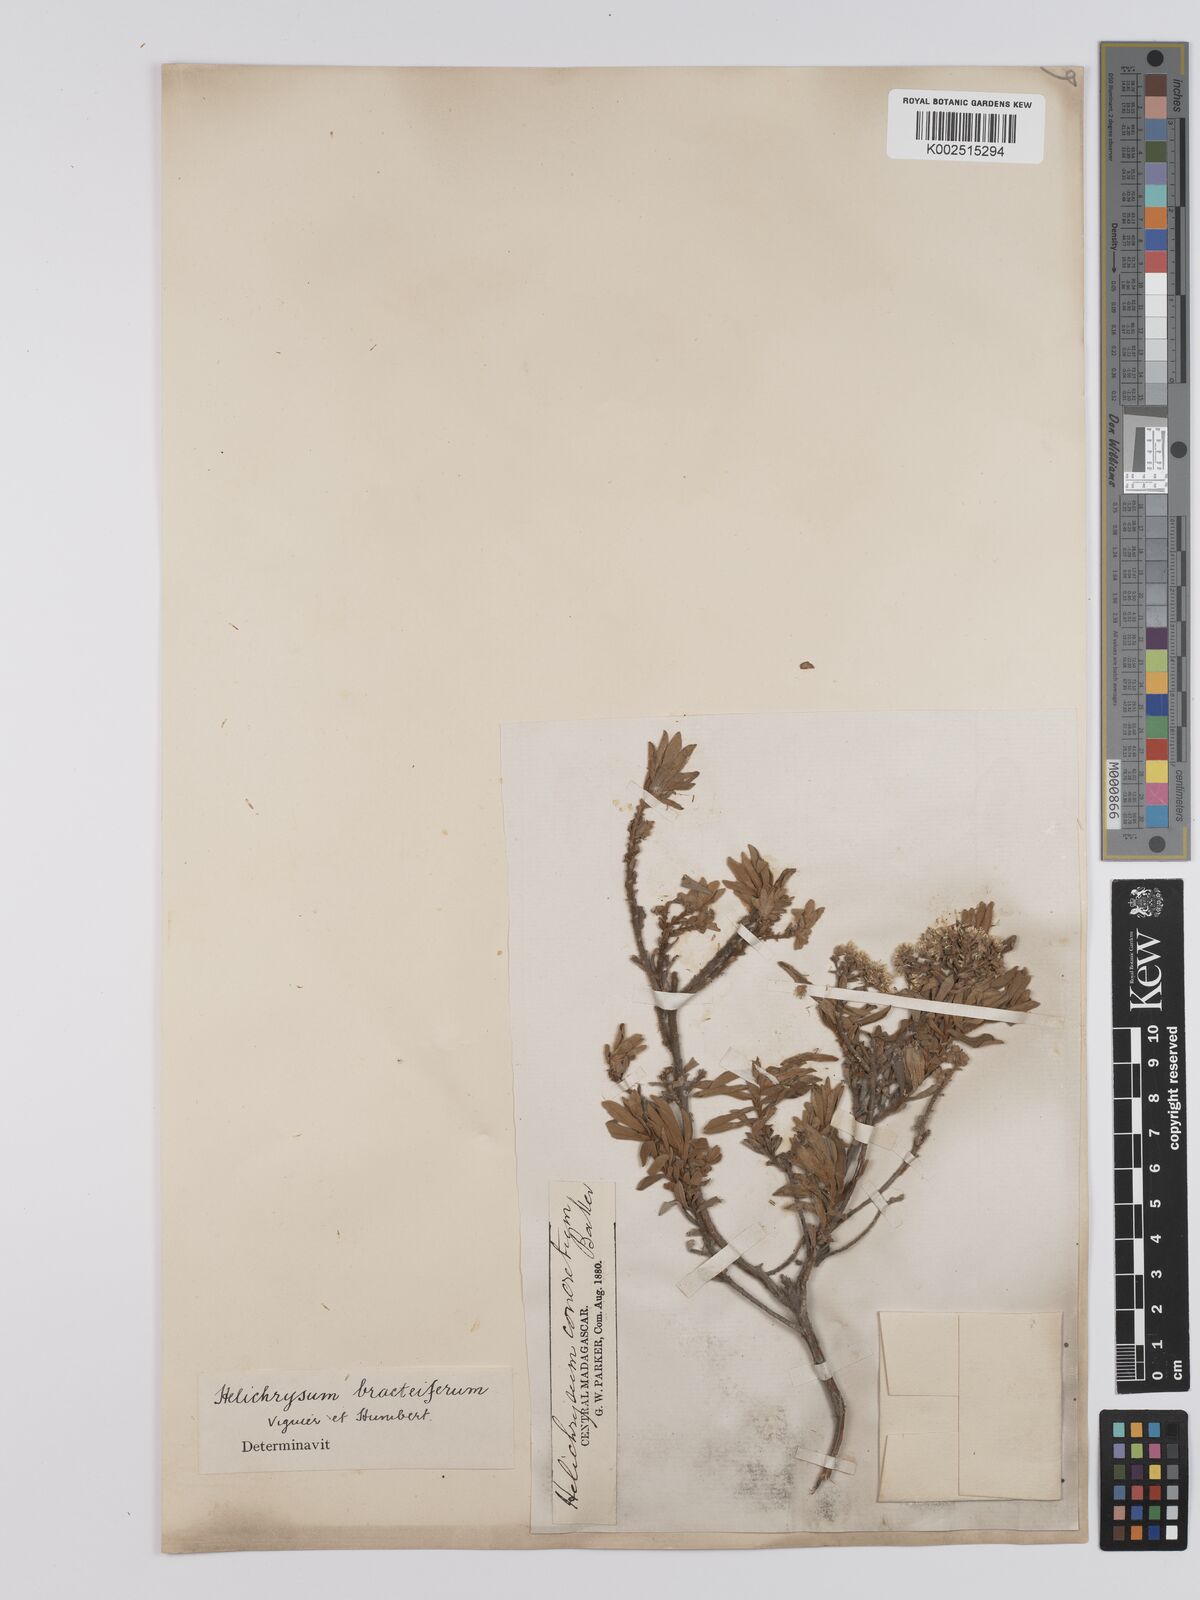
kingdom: Plantae
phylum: Tracheophyta
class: Magnoliopsida
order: Asterales
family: Asteraceae
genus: Helichrysum
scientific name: Helichrysum bracteiferum
